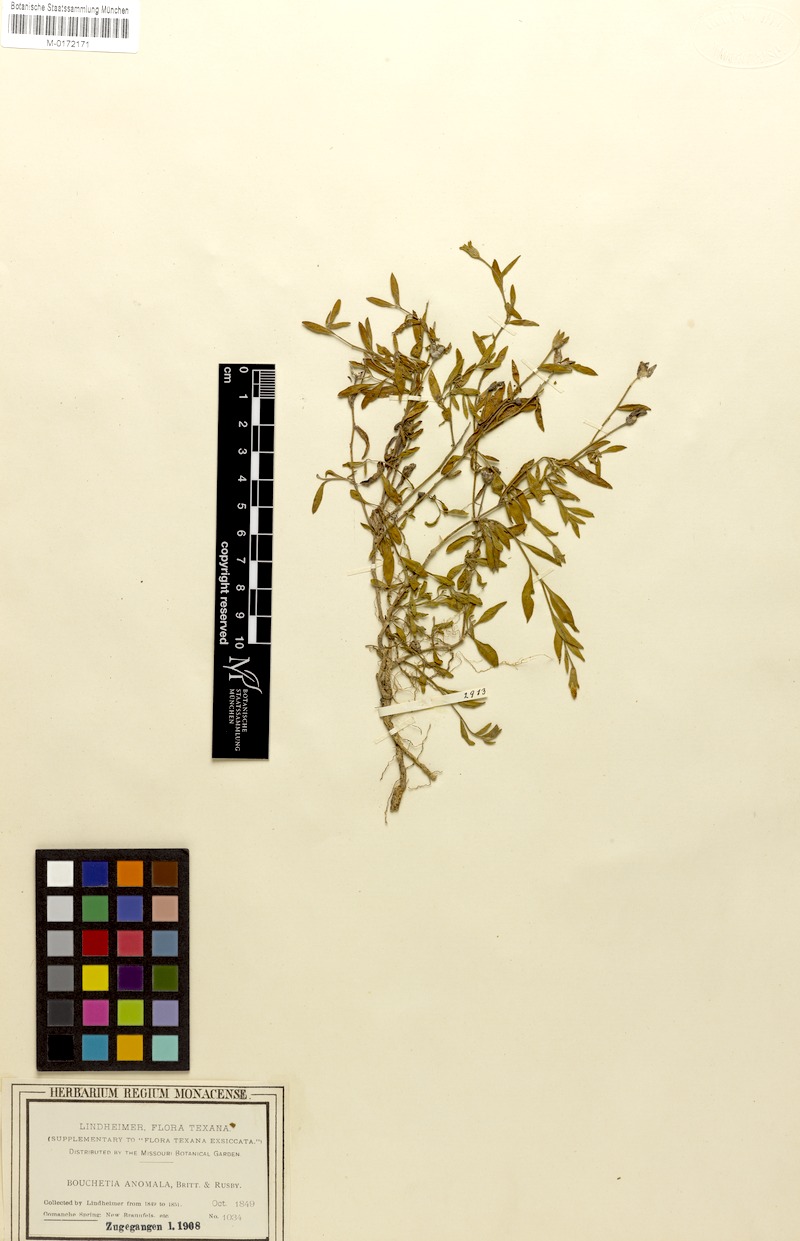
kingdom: Plantae
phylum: Tracheophyta
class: Magnoliopsida
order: Solanales
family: Solanaceae
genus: Salpiglossis
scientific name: Salpiglossis anomala
